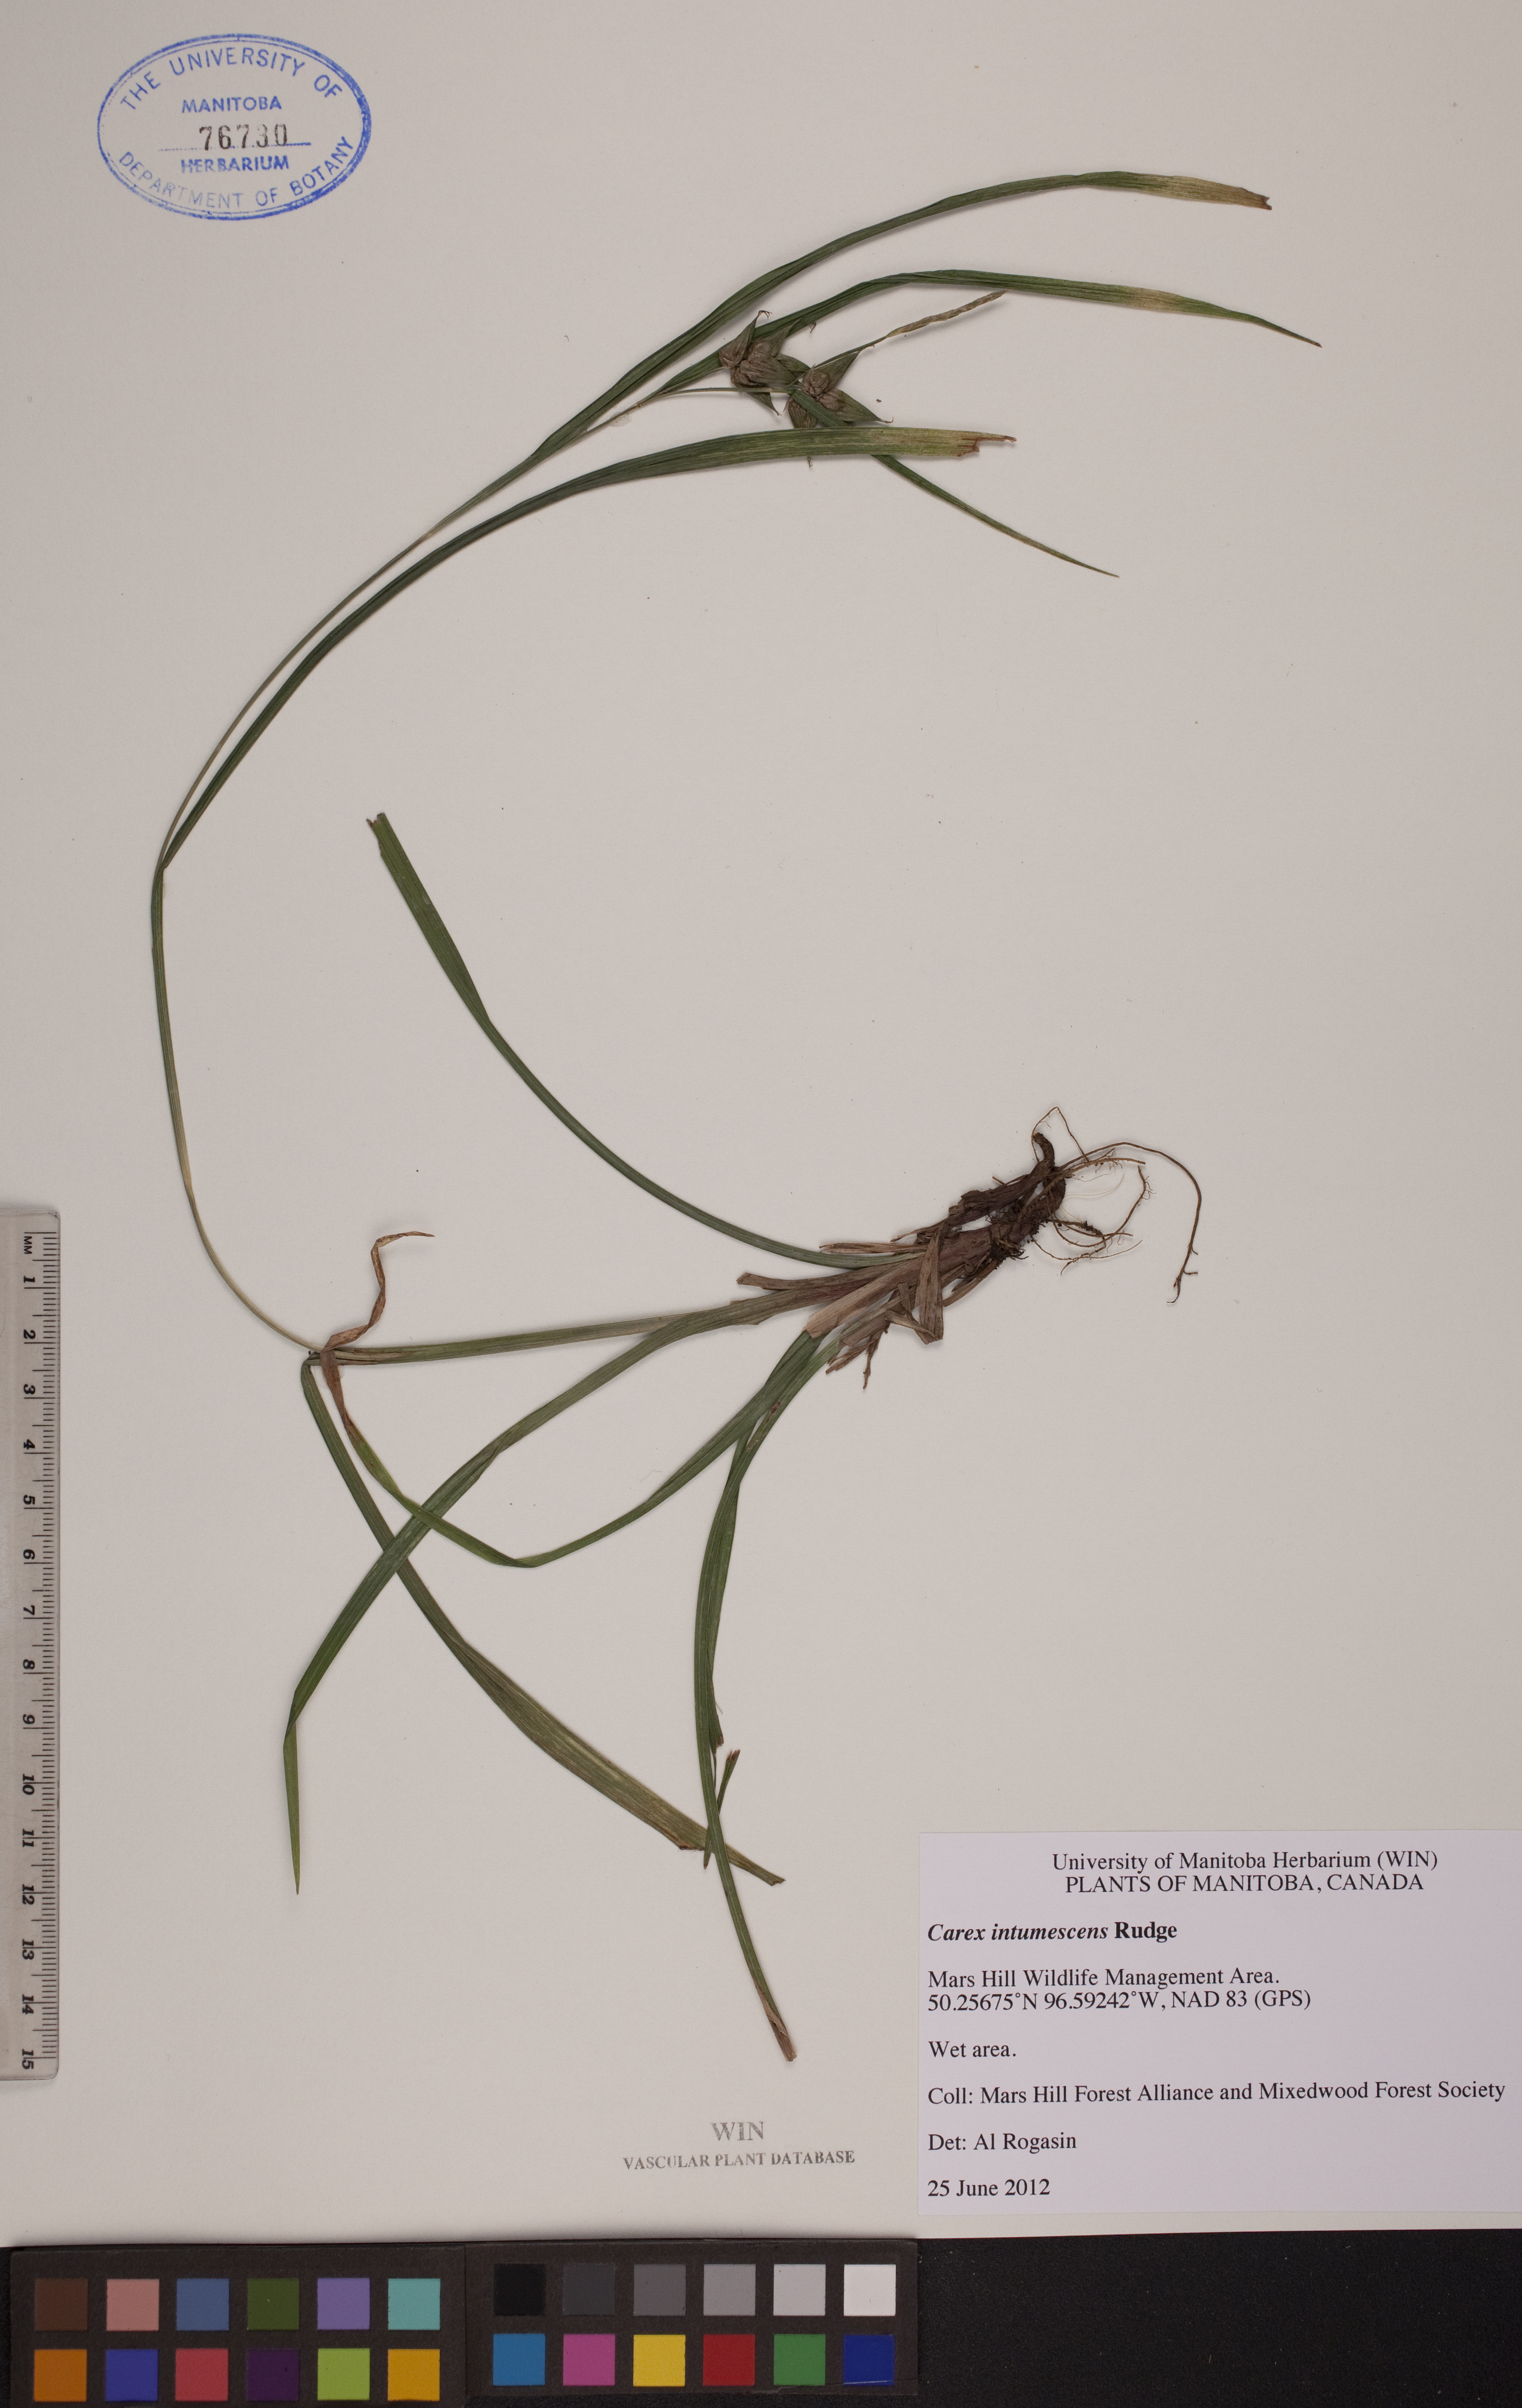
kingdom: Plantae
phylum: Tracheophyta
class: Liliopsida
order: Poales
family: Cyperaceae
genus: Carex
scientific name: Carex intumescens
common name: Greater bladder sedge
